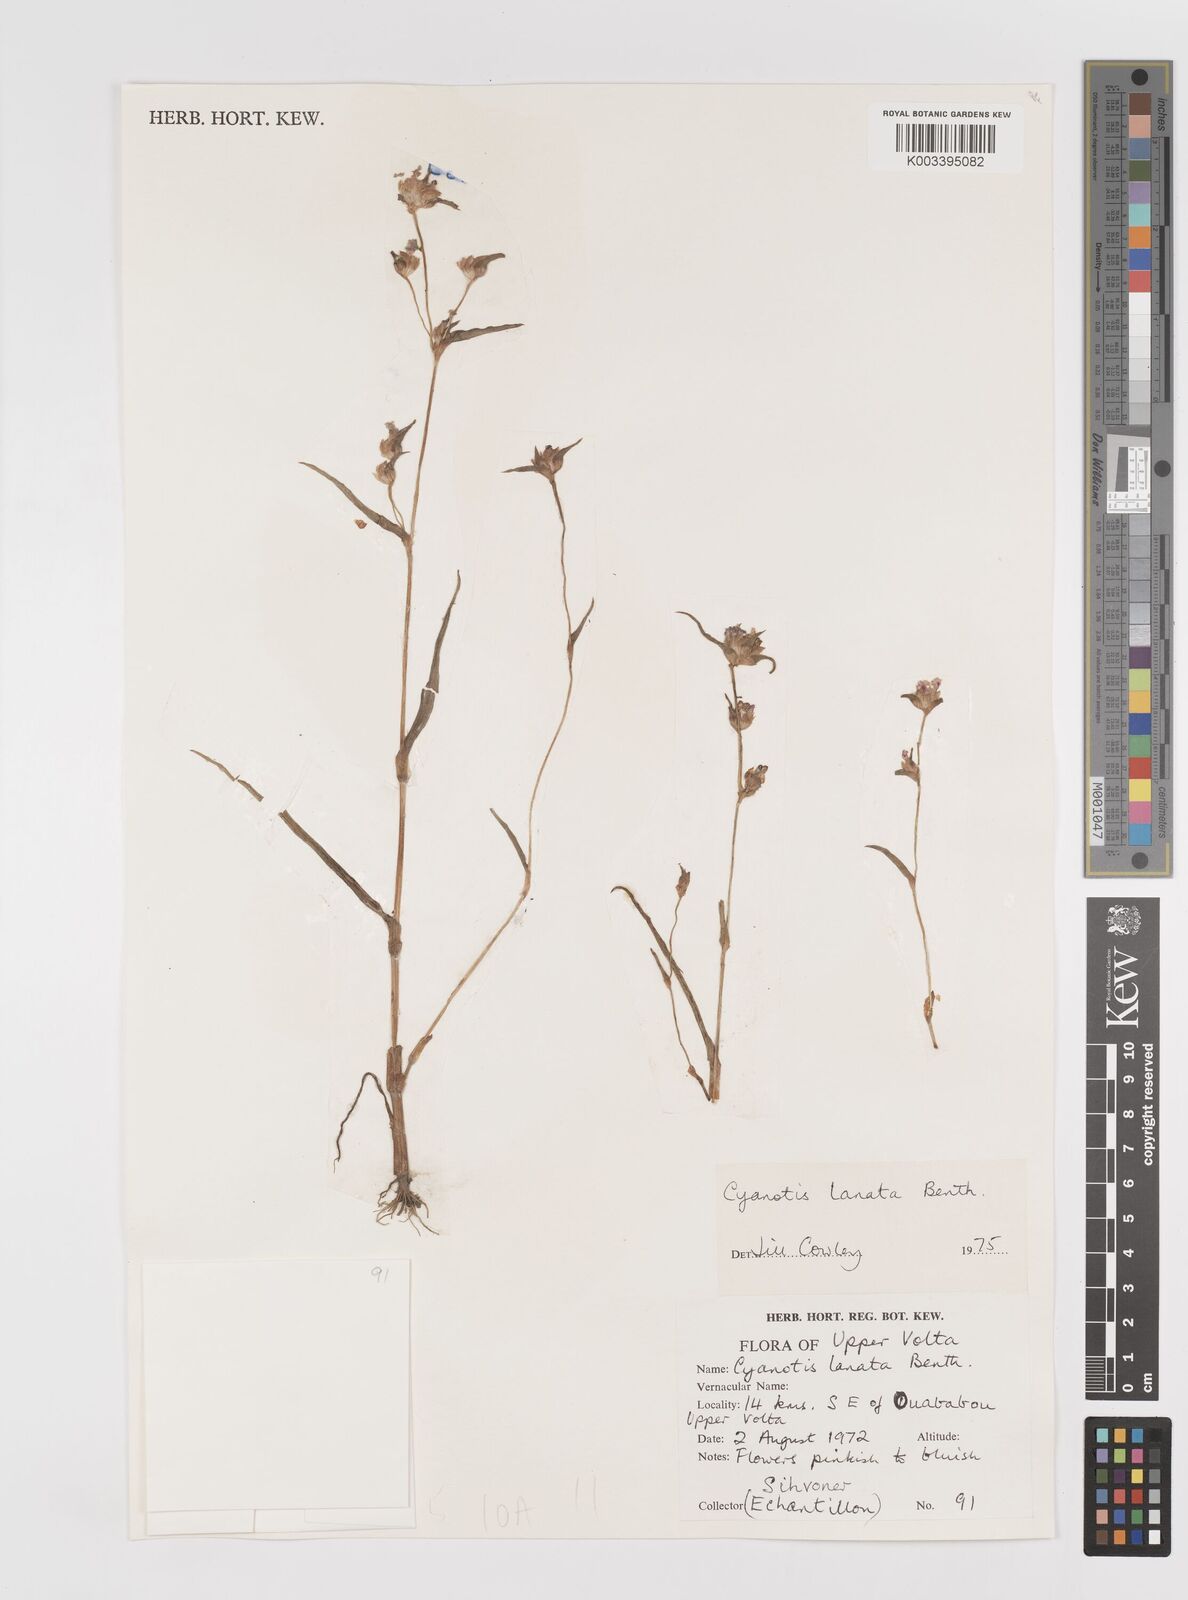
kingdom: Plantae
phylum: Tracheophyta
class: Liliopsida
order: Commelinales
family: Commelinaceae
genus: Cyanotis
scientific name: Cyanotis lanata
